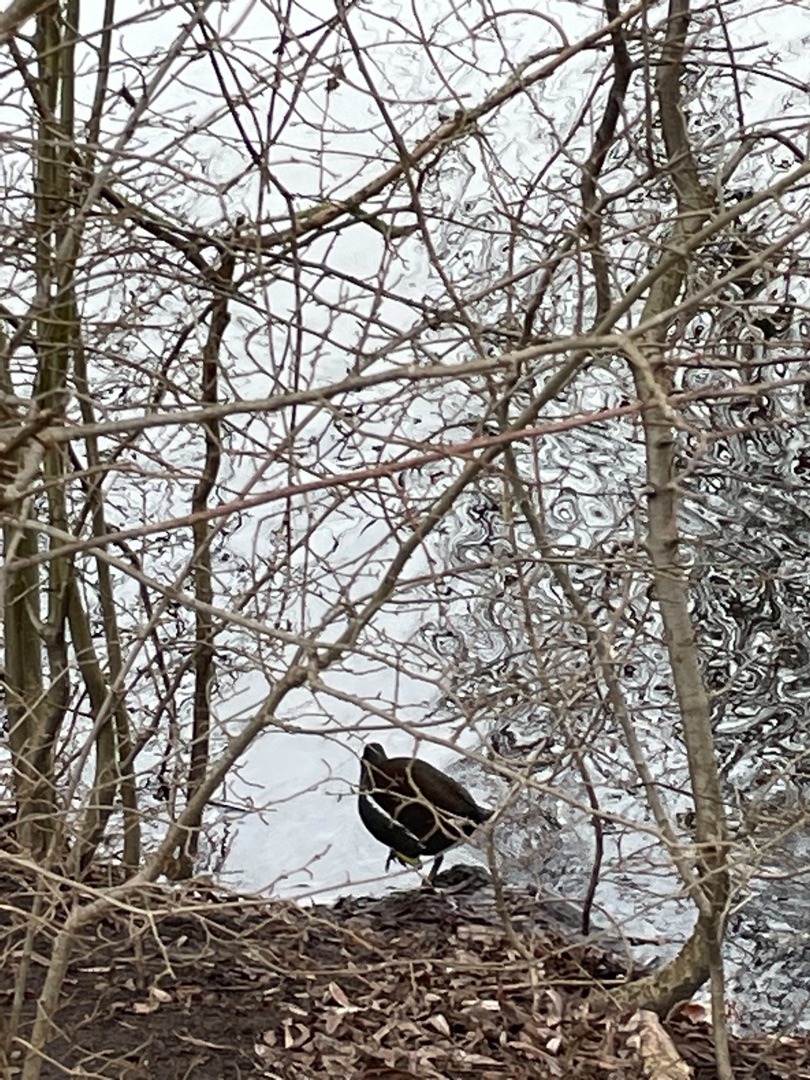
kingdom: Animalia
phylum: Chordata
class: Aves
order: Gruiformes
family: Rallidae
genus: Gallinula
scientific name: Gallinula chloropus
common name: Grønbenet rørhøne
